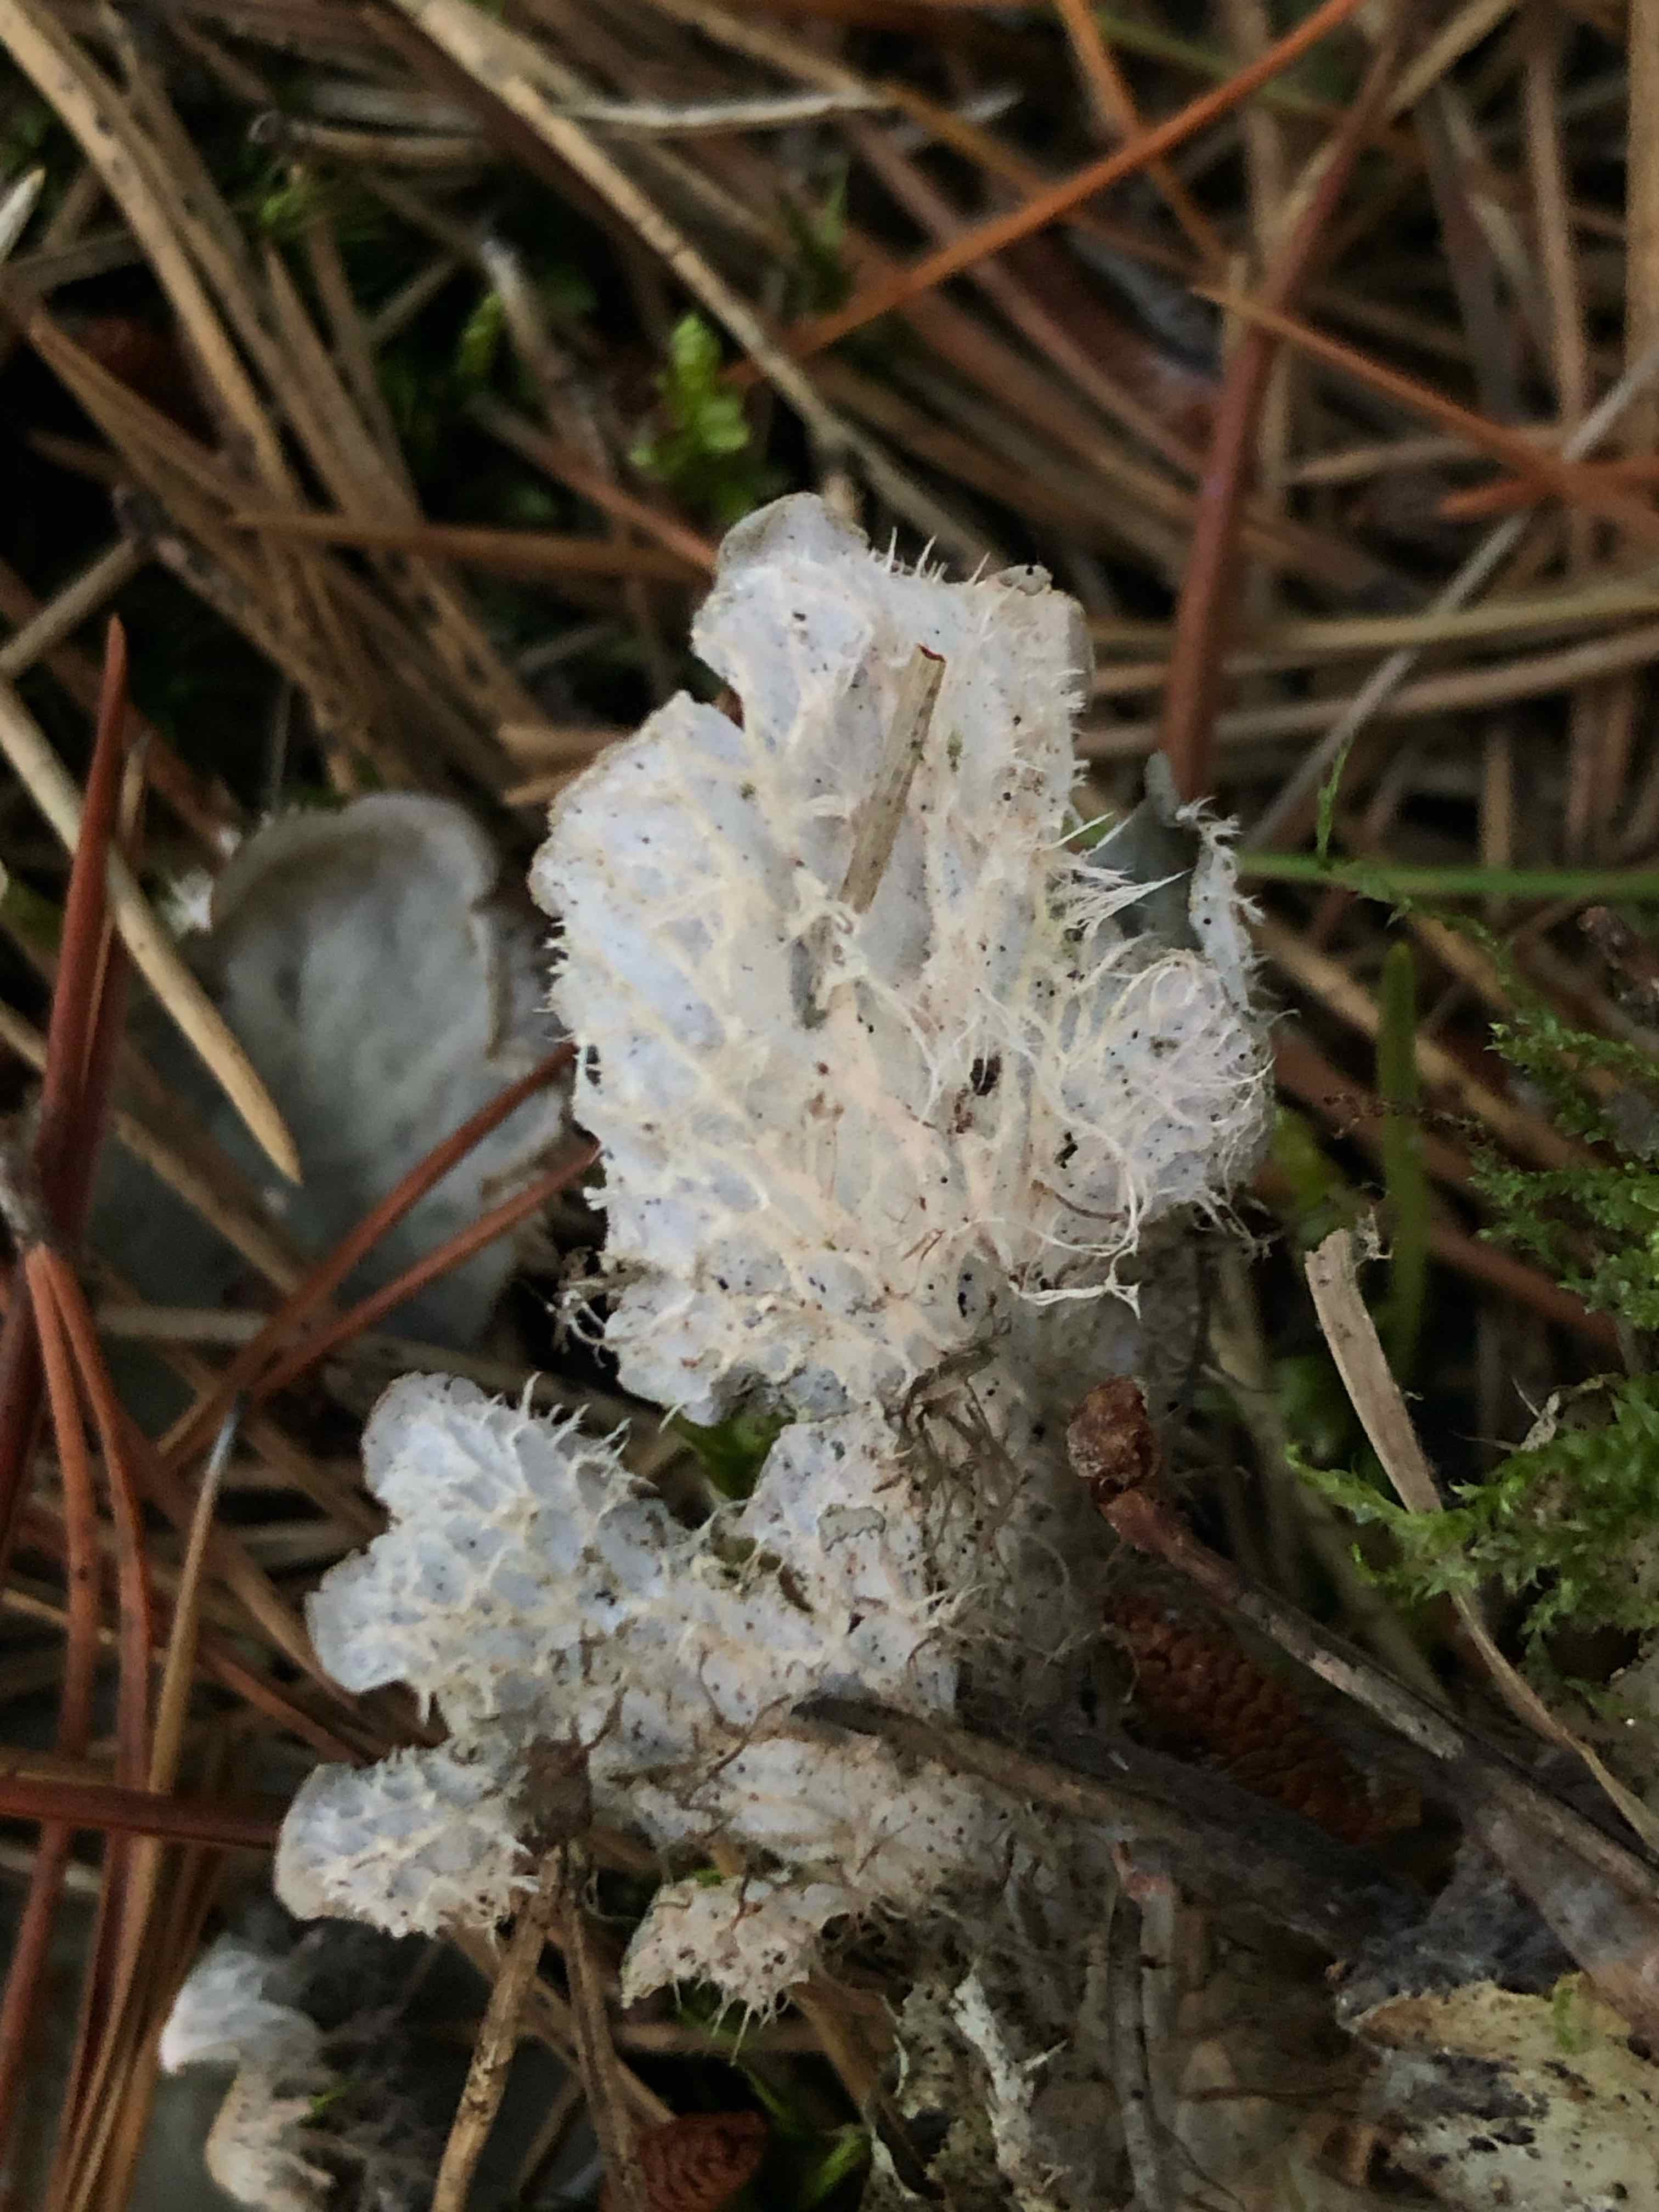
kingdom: Fungi
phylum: Ascomycota
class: Lecanoromycetes
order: Peltigerales
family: Peltigeraceae
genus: Peltigera
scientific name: Peltigera membranacea
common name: tynd skjoldlav
